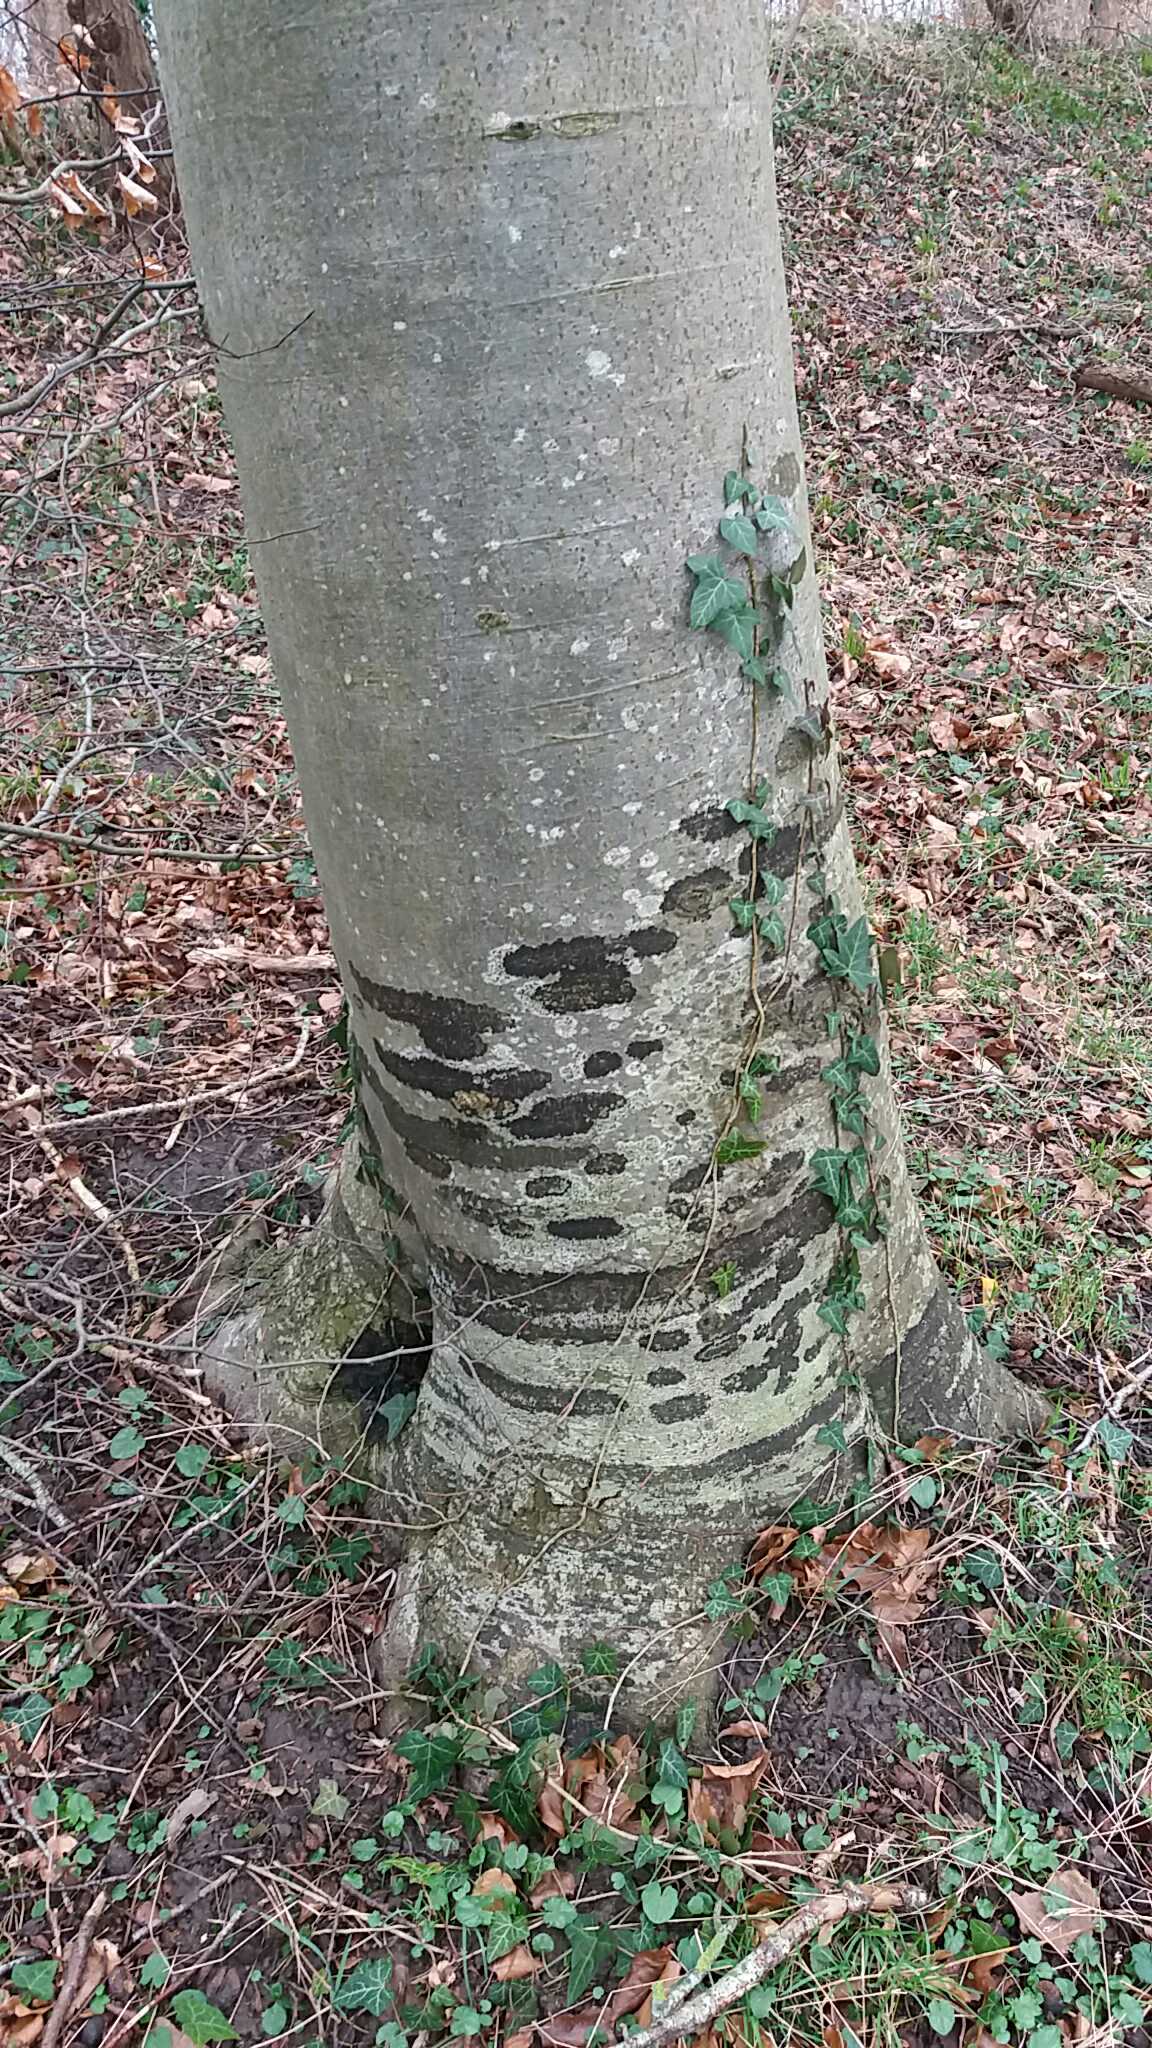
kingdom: Fungi
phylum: Ascomycota
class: Leotiomycetes
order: Rhytismatales
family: Ascodichaenaceae
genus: Ascodichaena
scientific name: Ascodichaena rugosa
